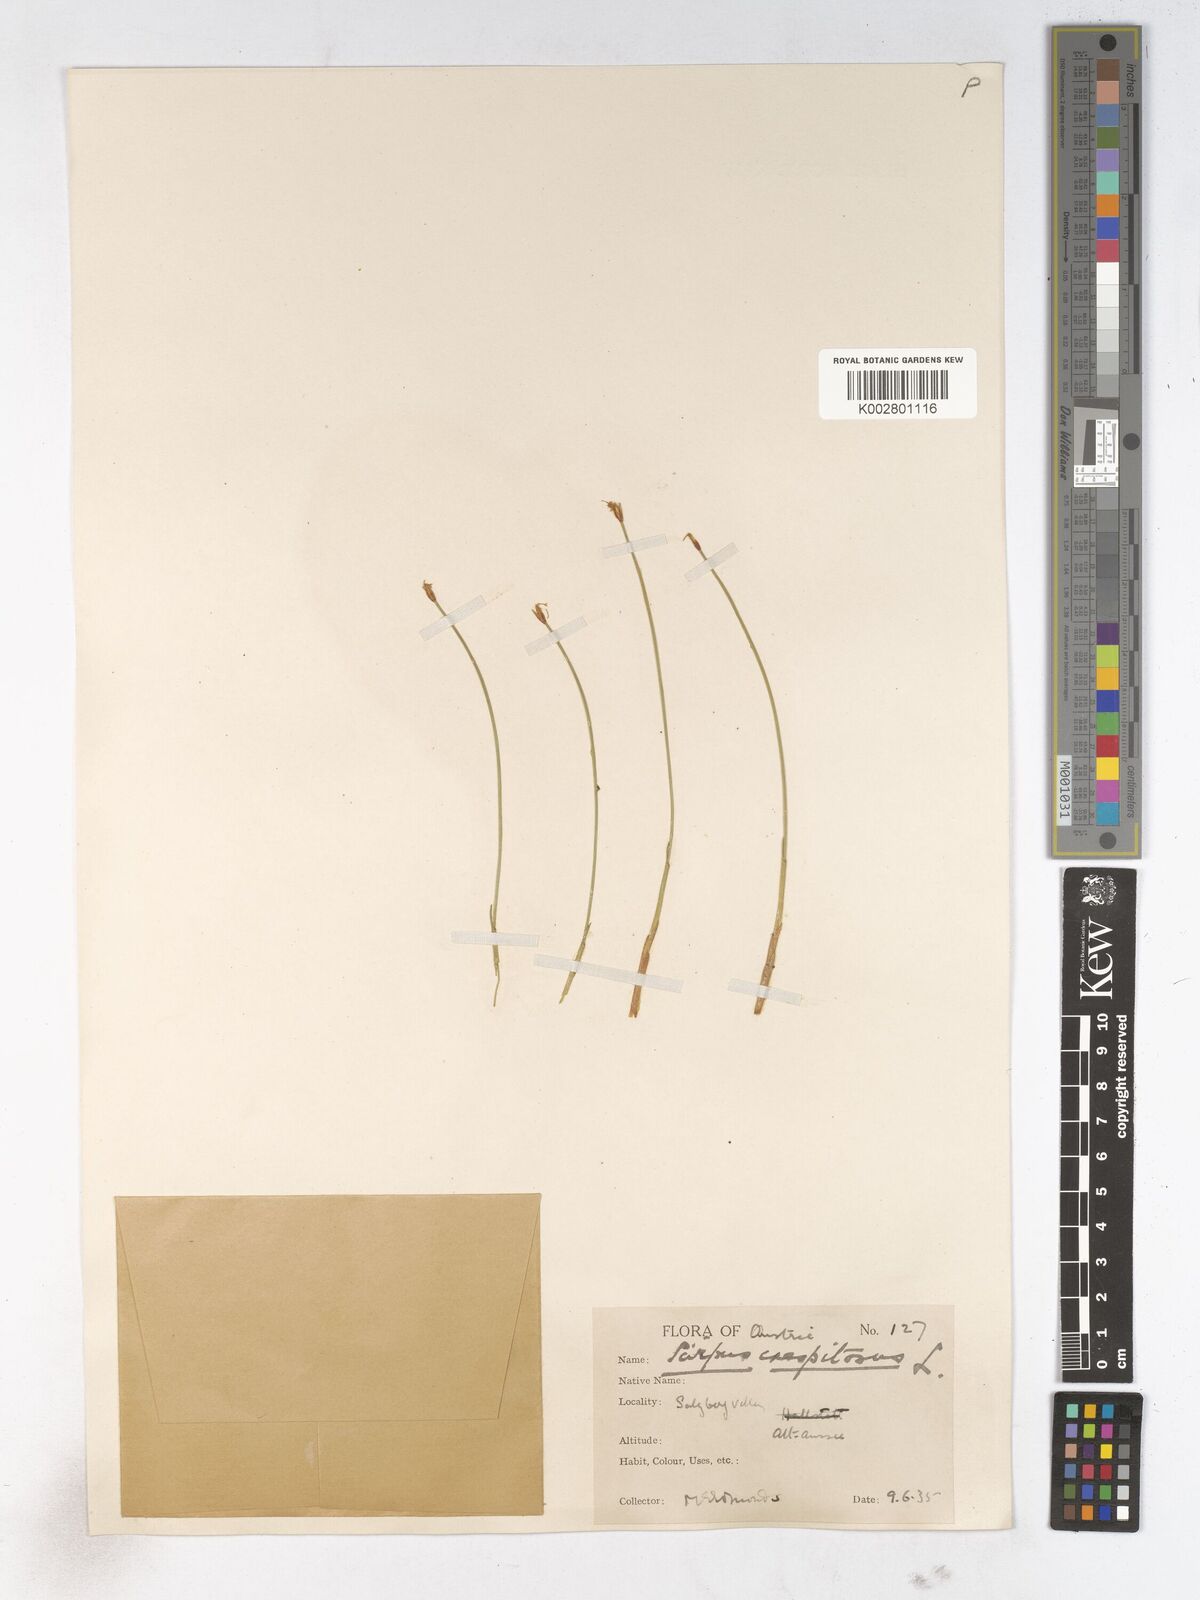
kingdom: Plantae
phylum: Tracheophyta
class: Liliopsida
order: Poales
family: Cyperaceae
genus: Trichophorum
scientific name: Trichophorum cespitosum
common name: Cespitose bulrush
